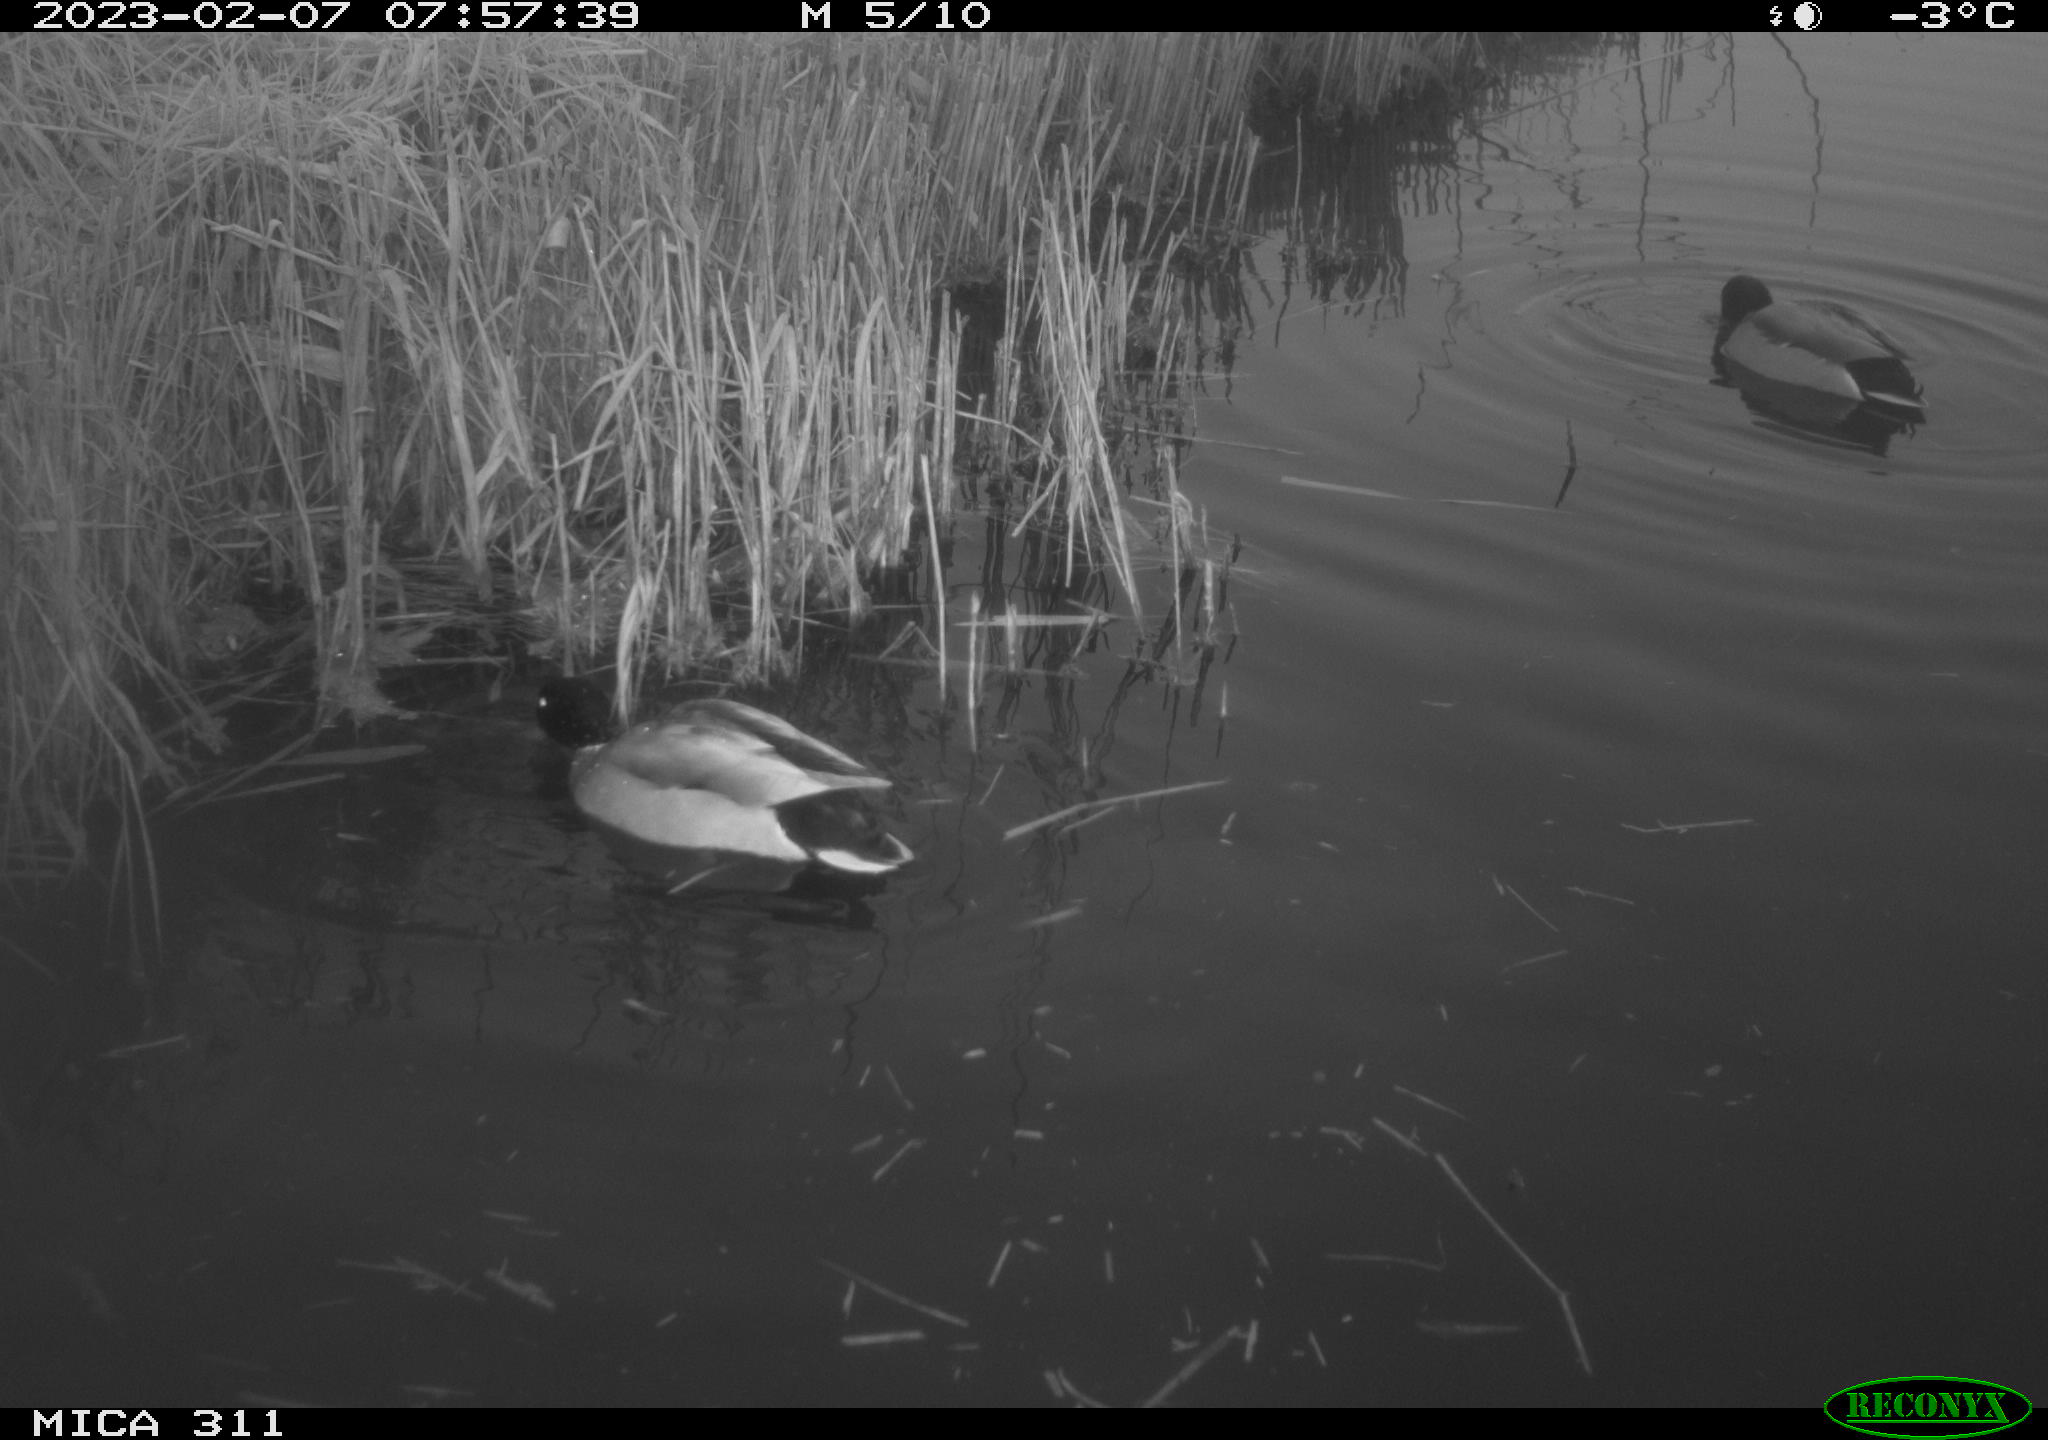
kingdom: Animalia
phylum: Chordata
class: Aves
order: Anseriformes
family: Anatidae
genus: Anas
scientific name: Anas
